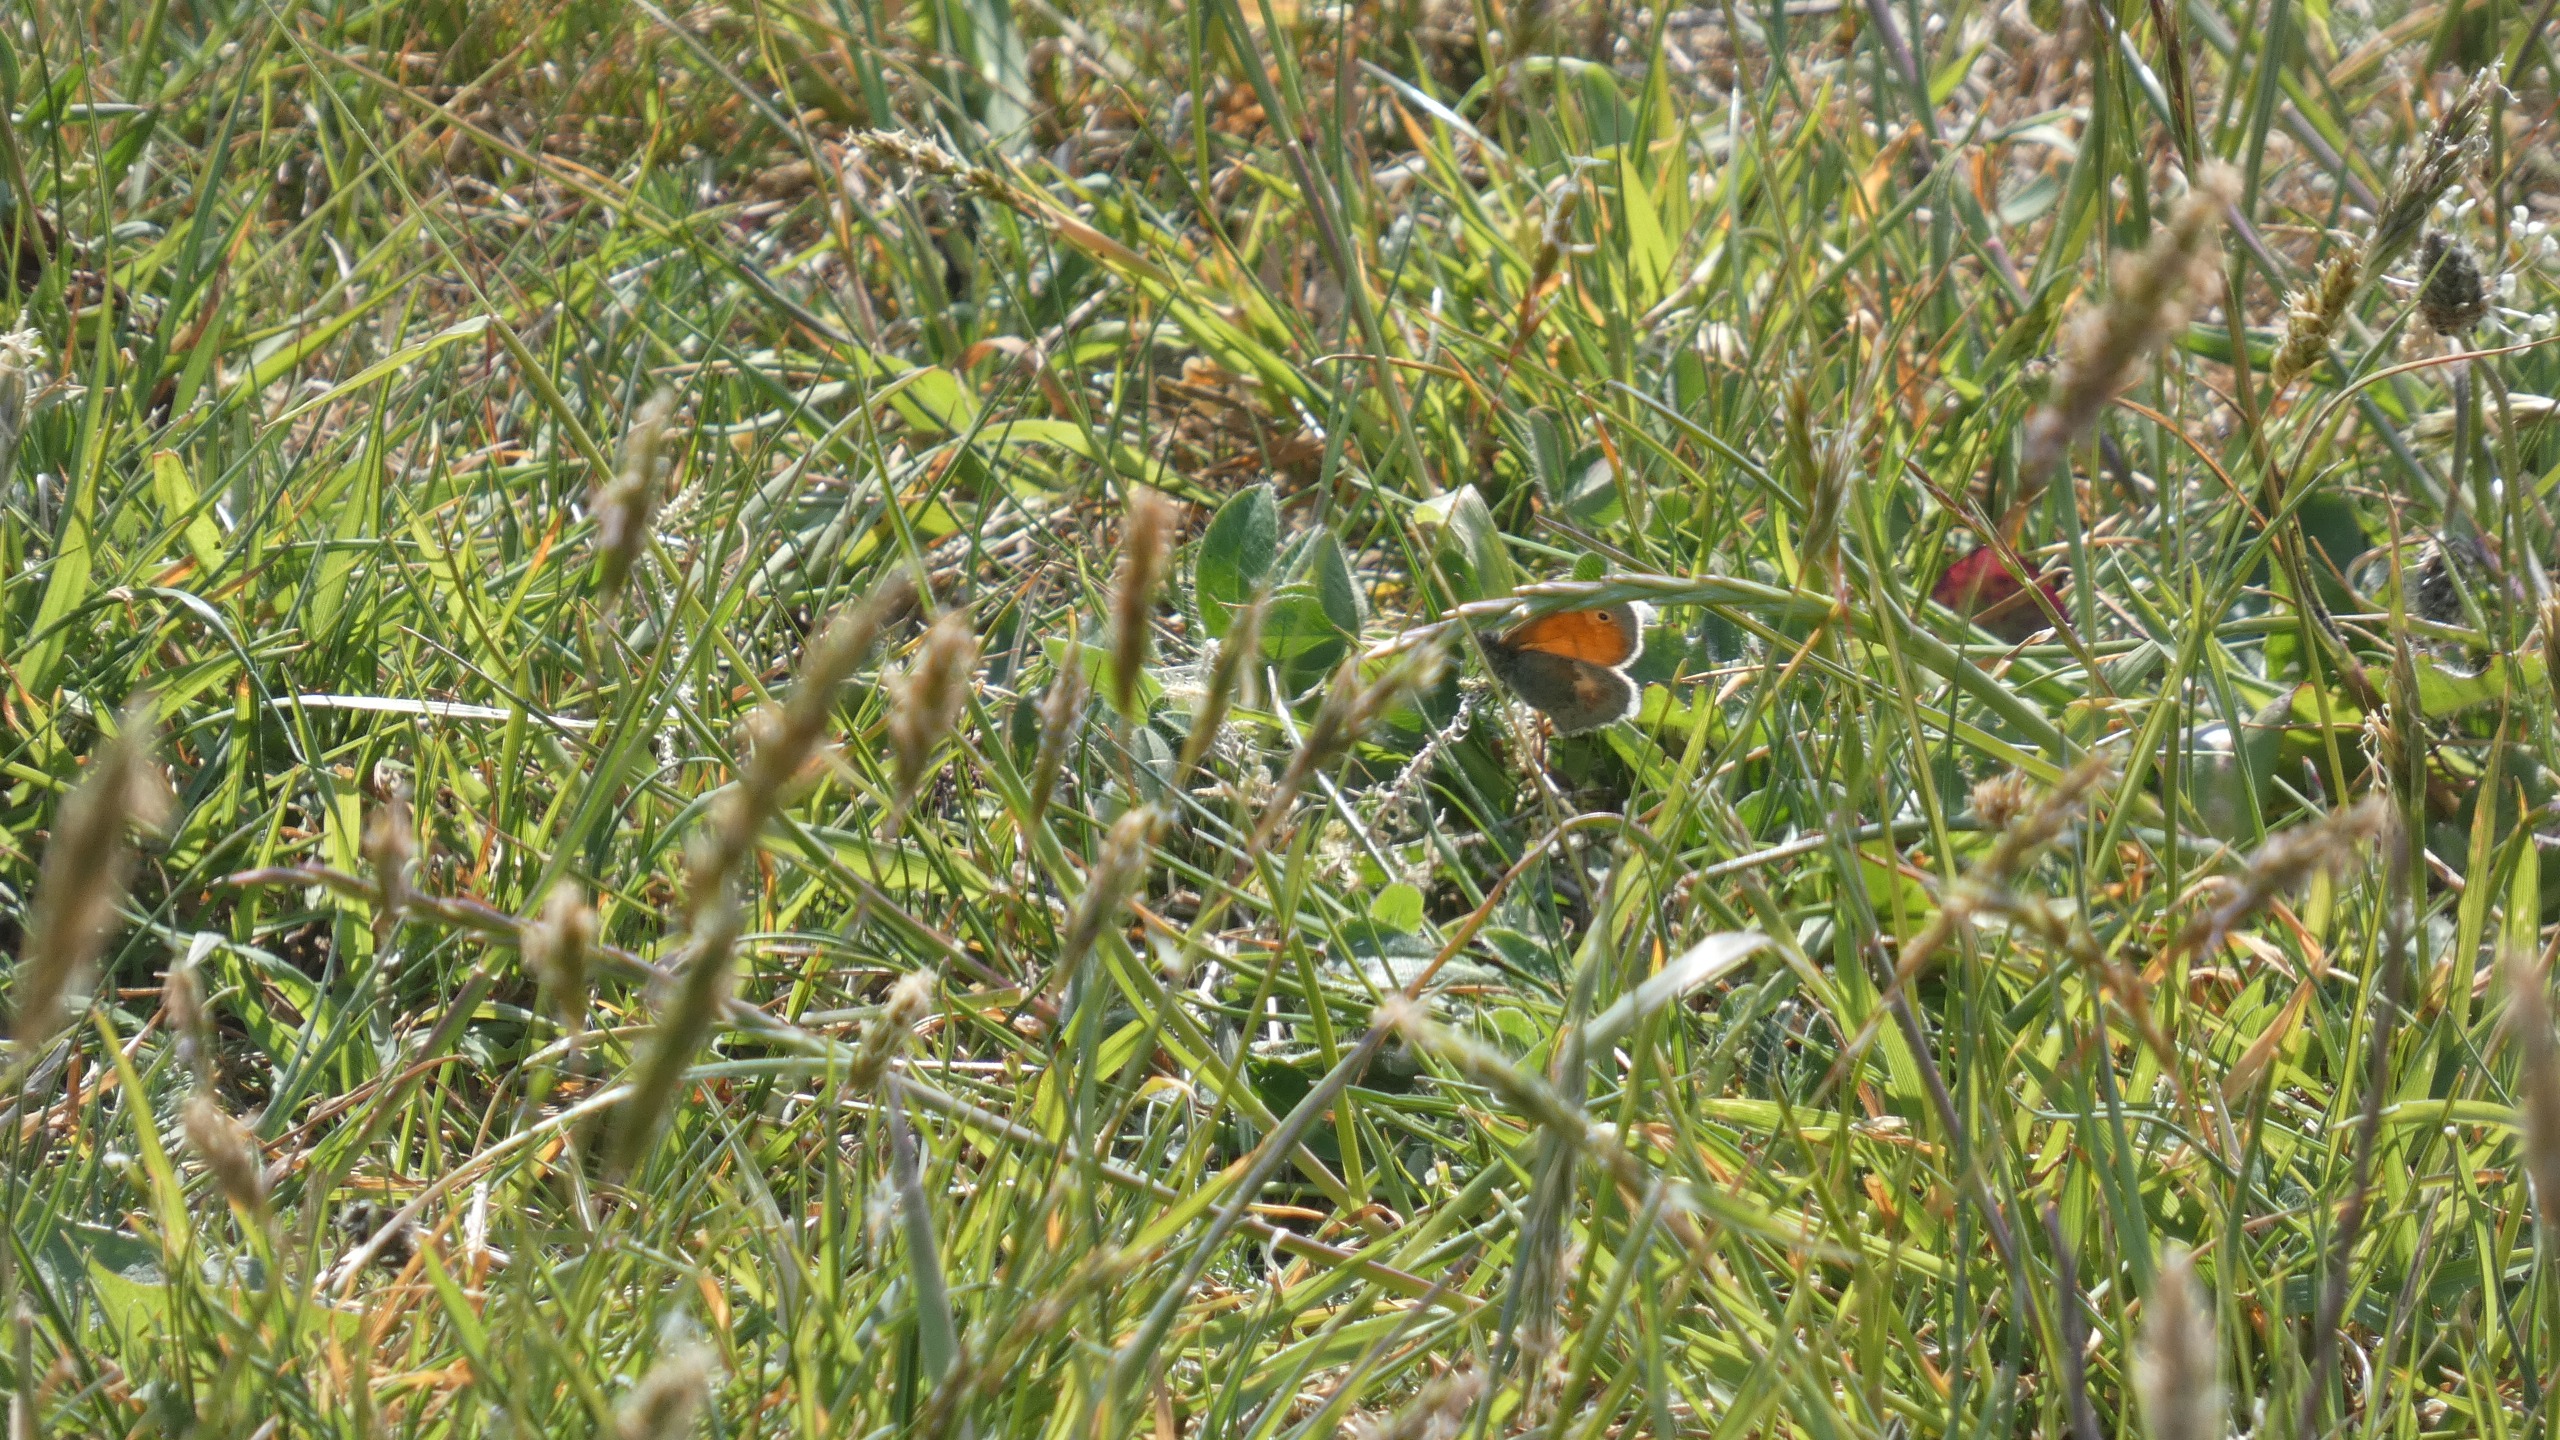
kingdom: Animalia
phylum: Arthropoda
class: Insecta
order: Lepidoptera
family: Nymphalidae
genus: Coenonympha
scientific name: Coenonympha pamphilus
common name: Okkergul randøje
